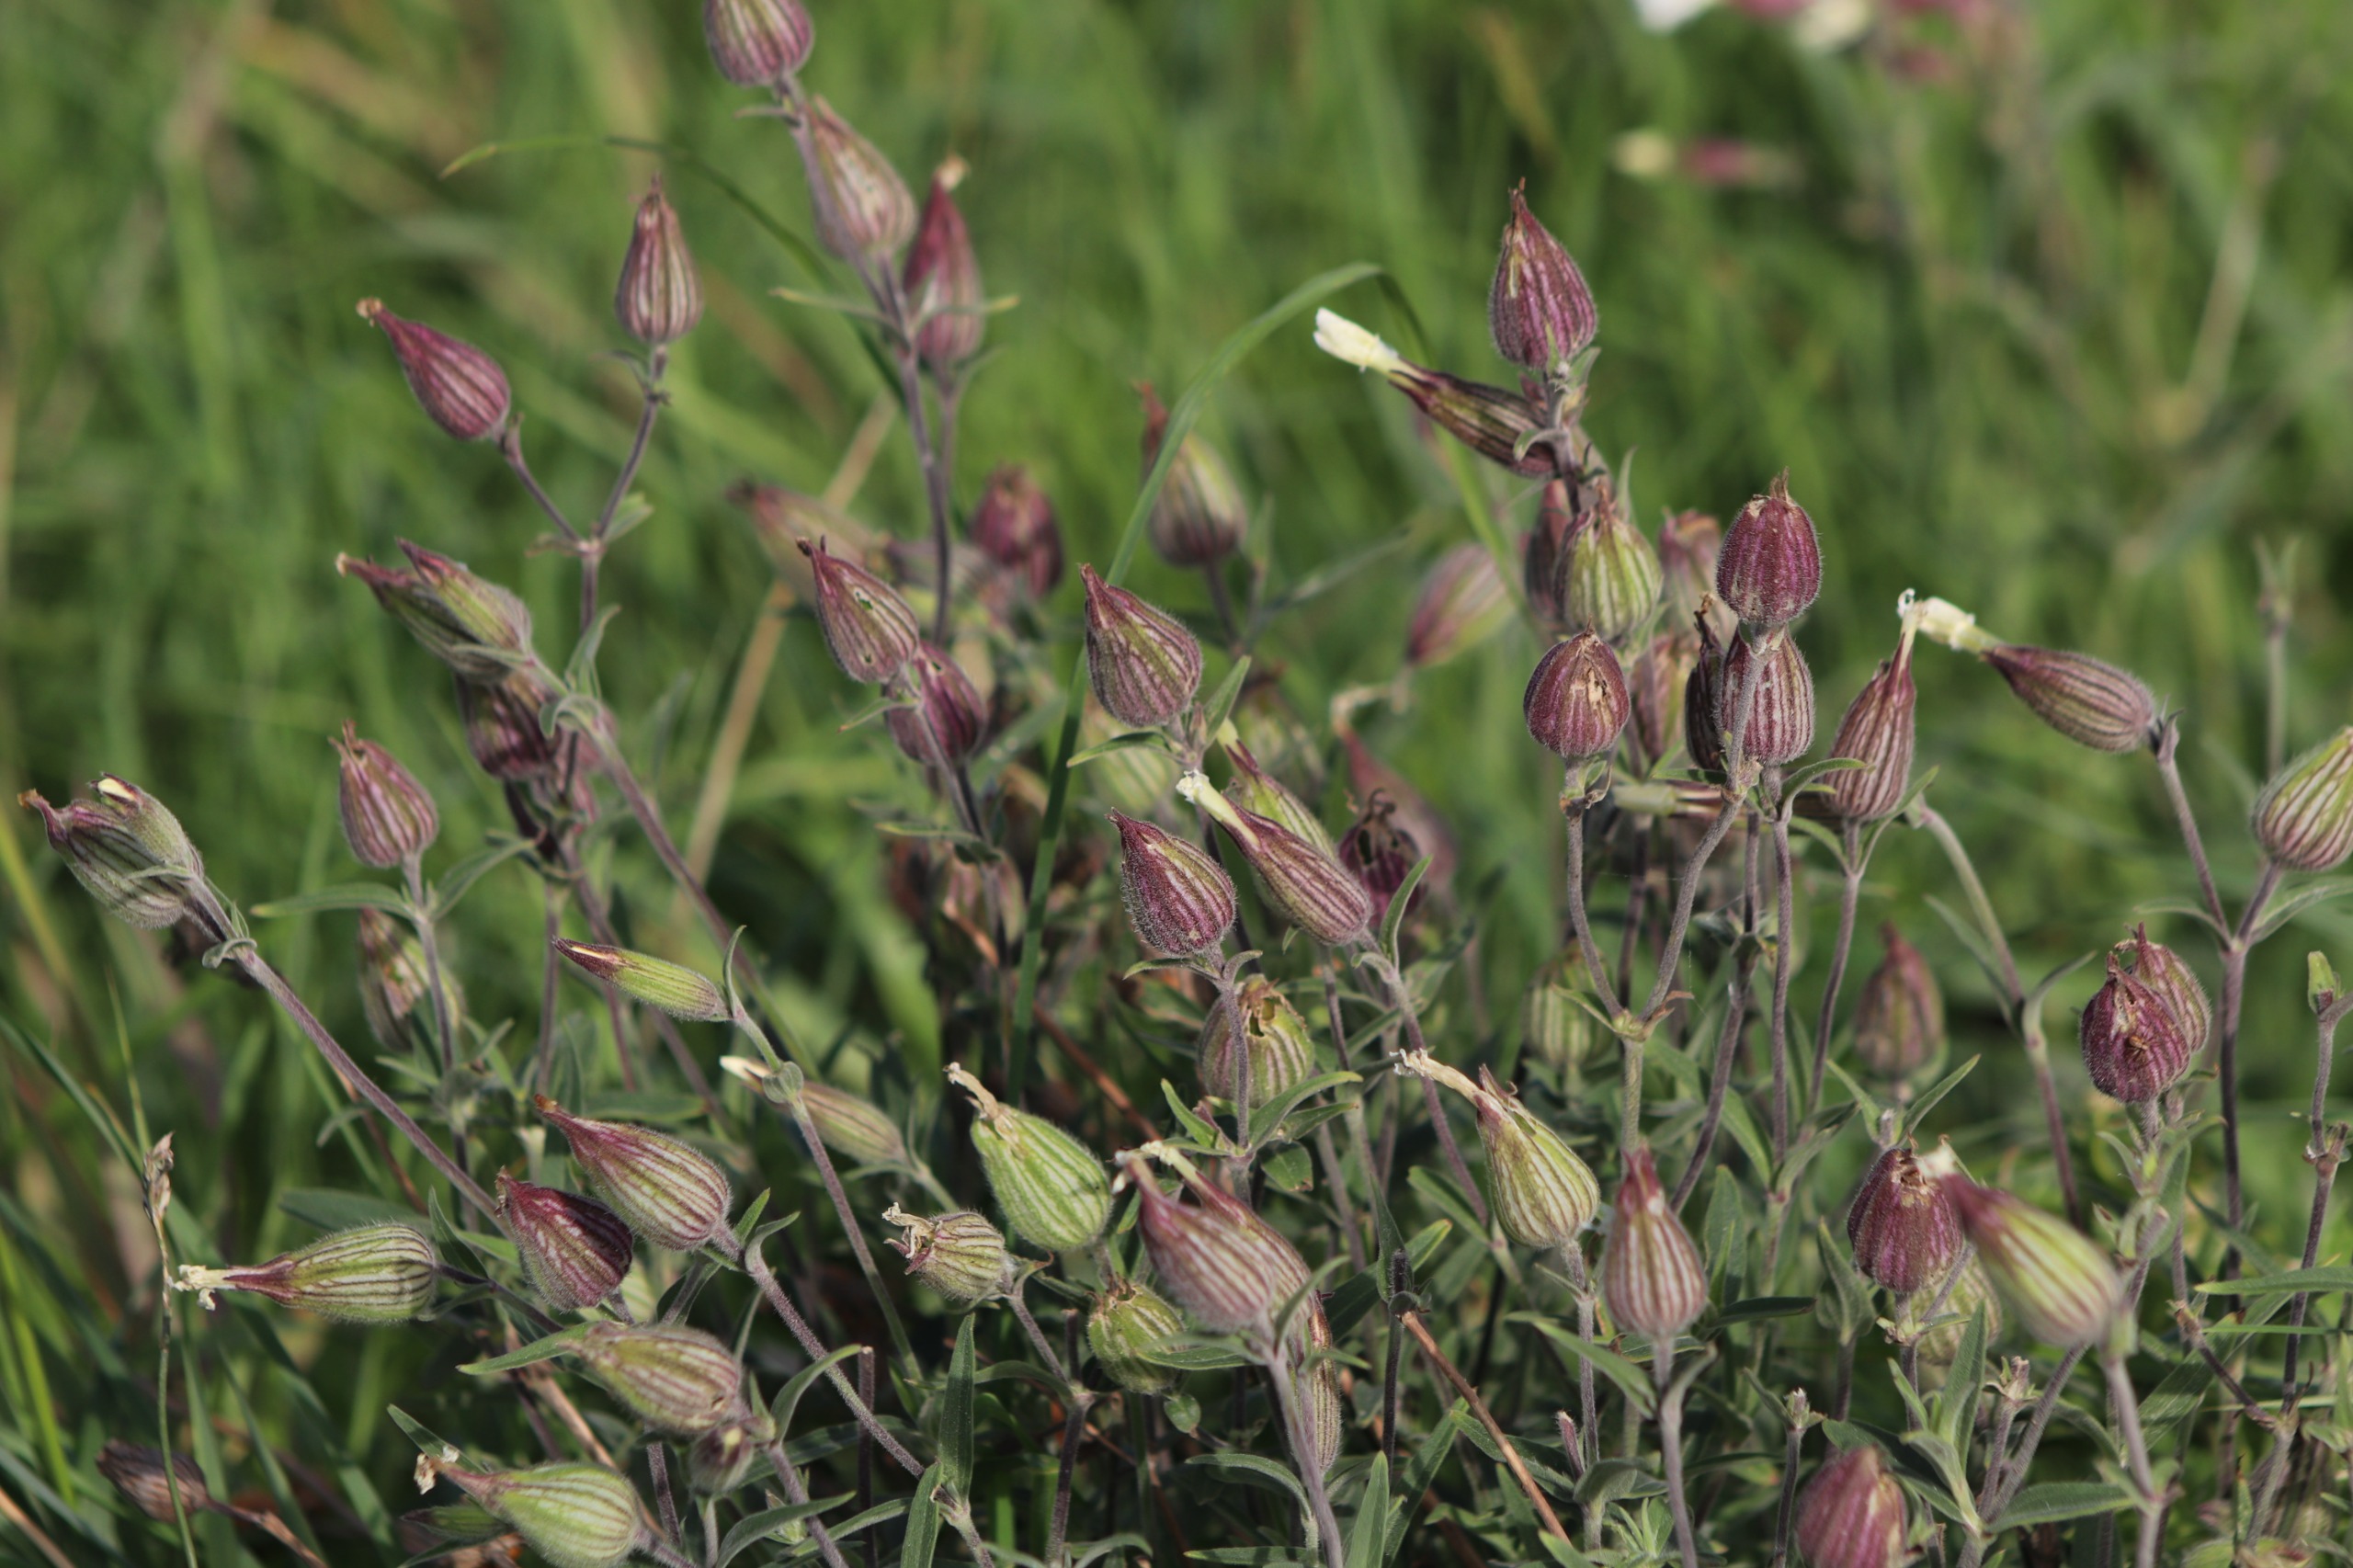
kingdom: Plantae
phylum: Tracheophyta
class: Magnoliopsida
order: Caryophyllales
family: Caryophyllaceae
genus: Silene
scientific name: Silene latifolia
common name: Aftenpragtstjerne
